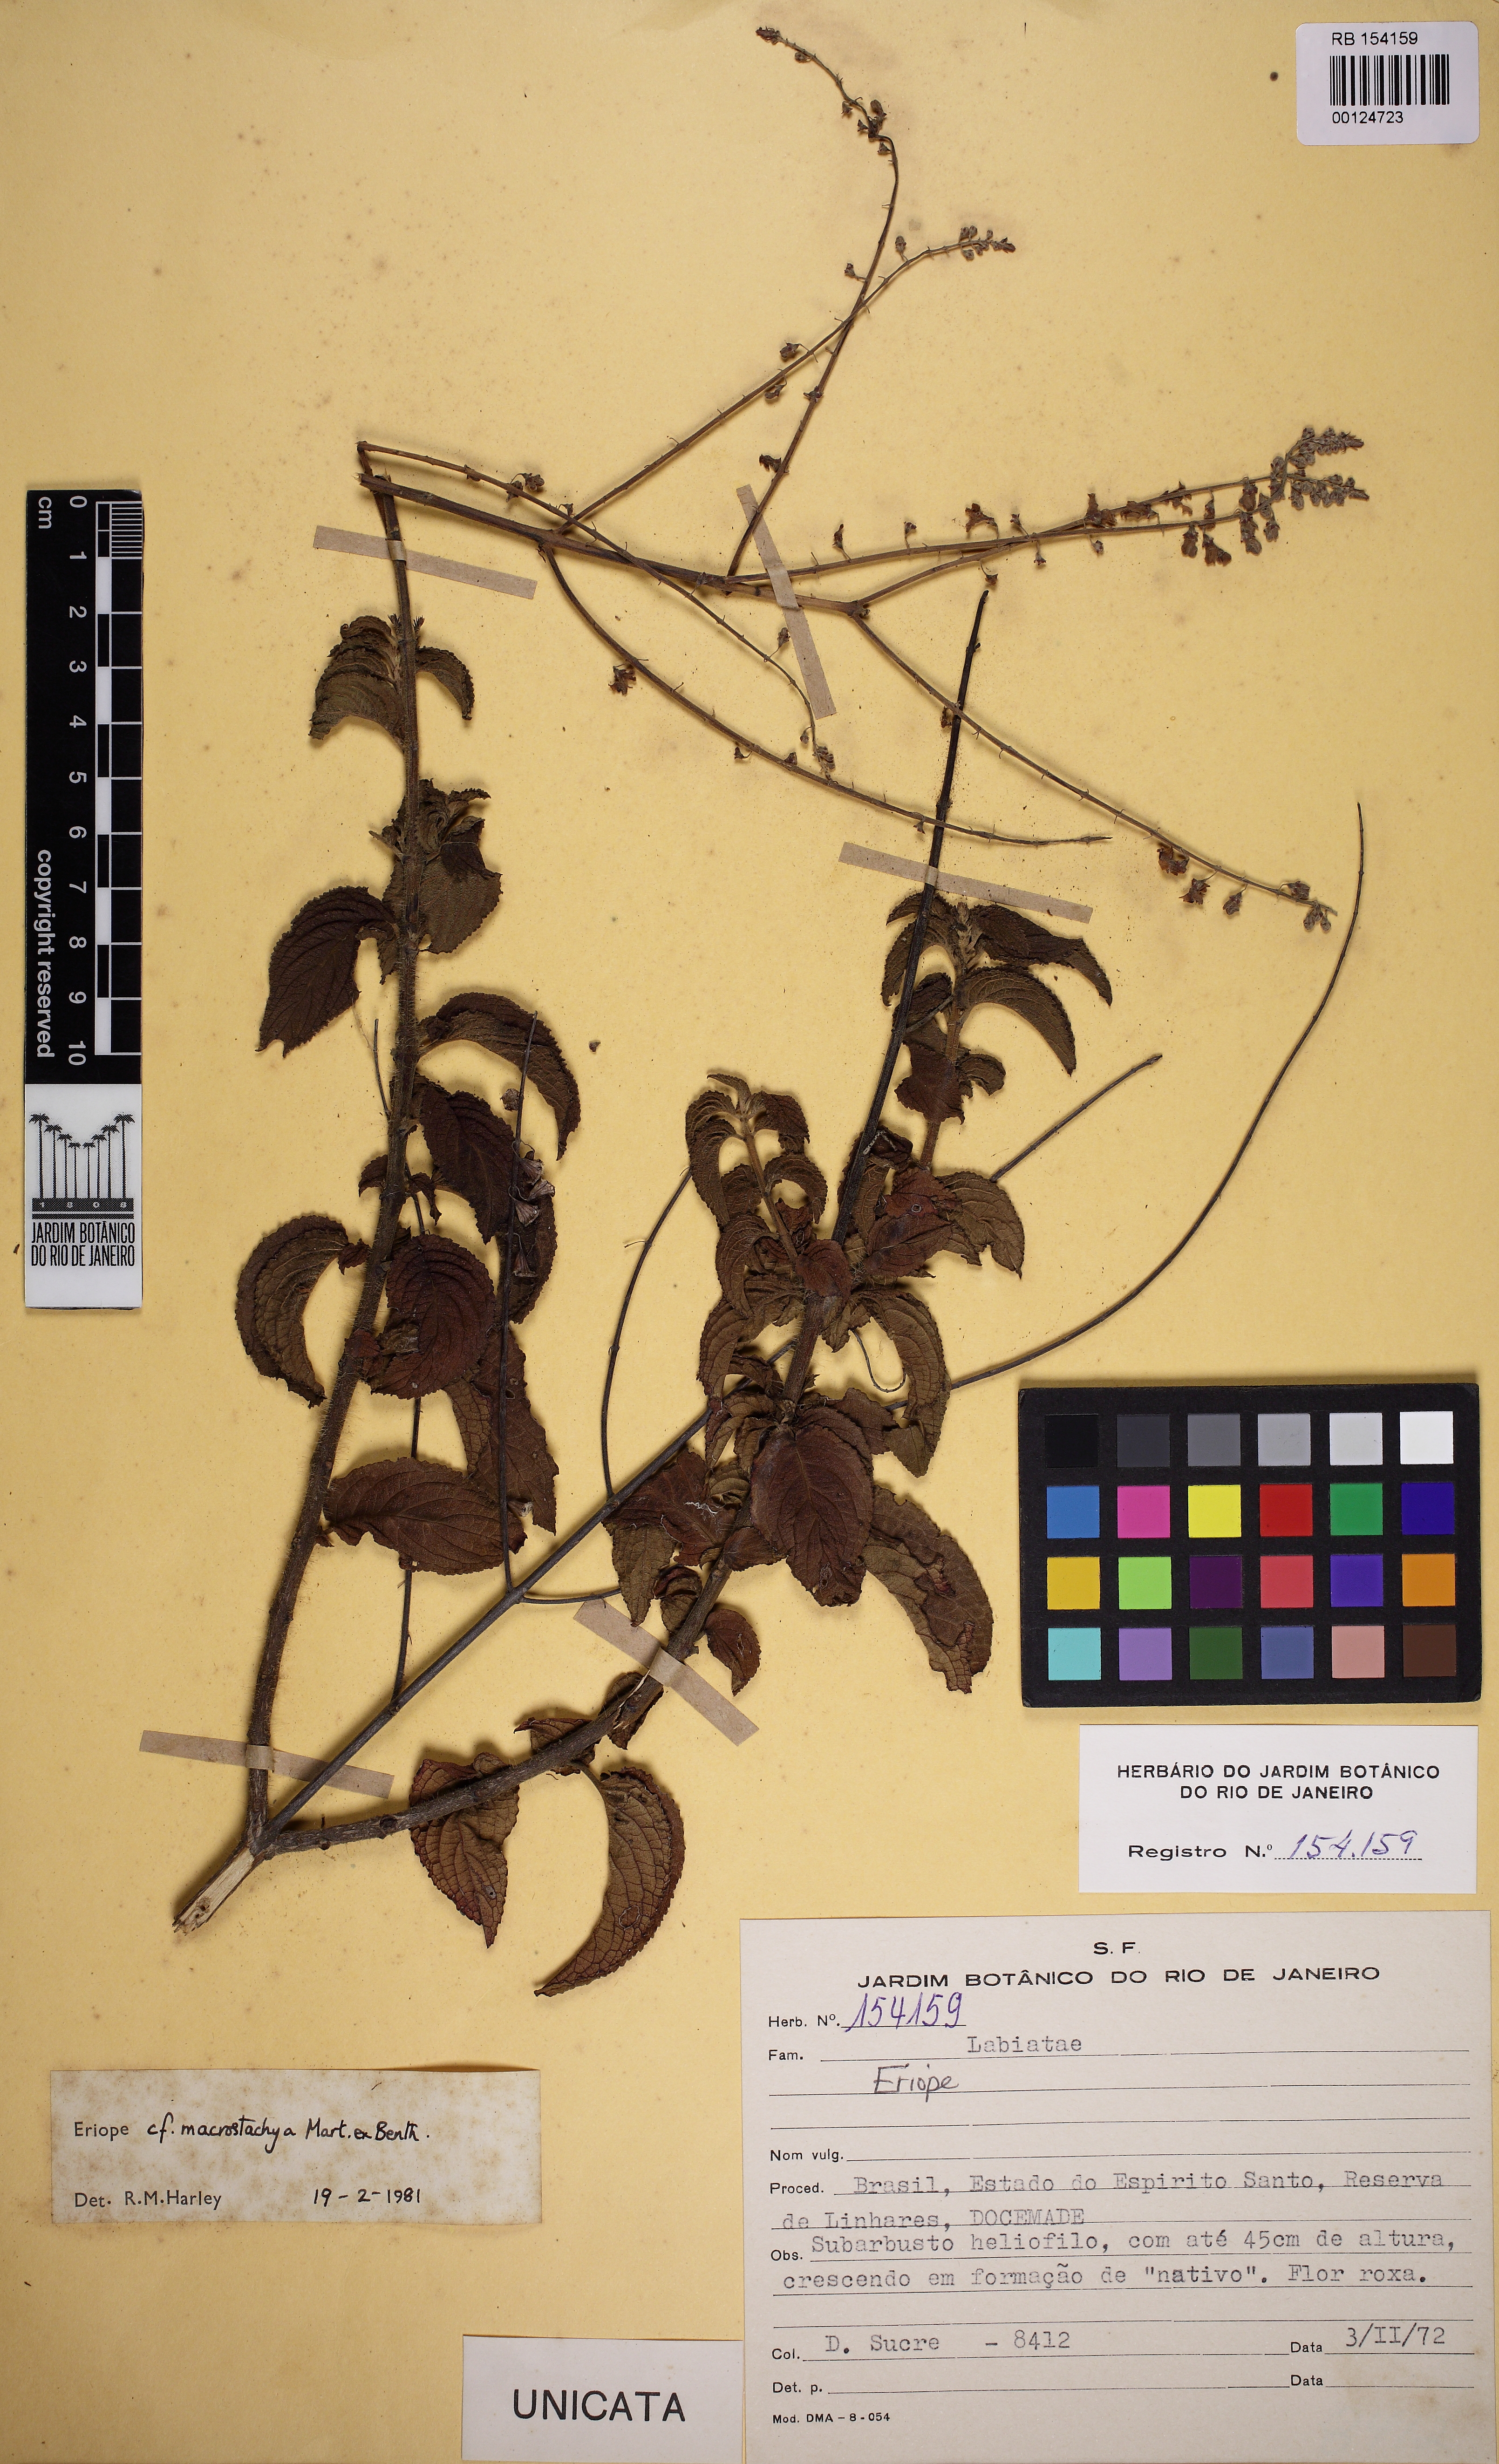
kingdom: Plantae
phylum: Tracheophyta
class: Magnoliopsida
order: Lamiales
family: Lamiaceae
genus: Eriope
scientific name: Eriope macrostachya
